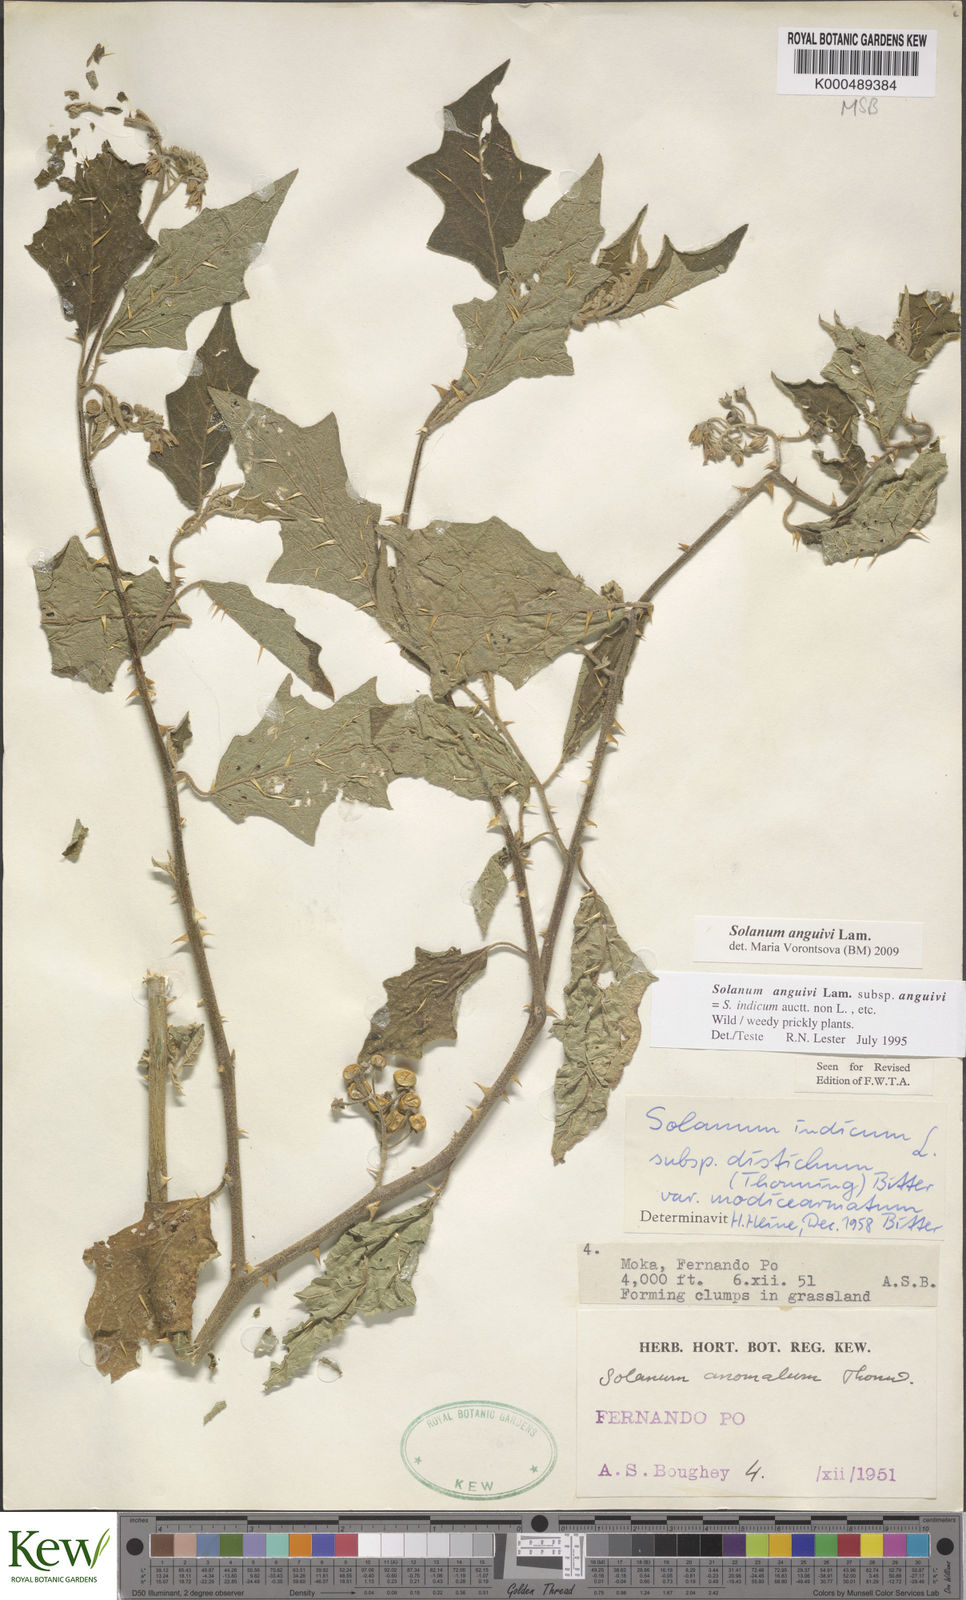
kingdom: Plantae
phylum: Tracheophyta
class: Magnoliopsida
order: Solanales
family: Solanaceae
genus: Solanum
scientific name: Solanum anguivi
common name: Forest bitterberry
